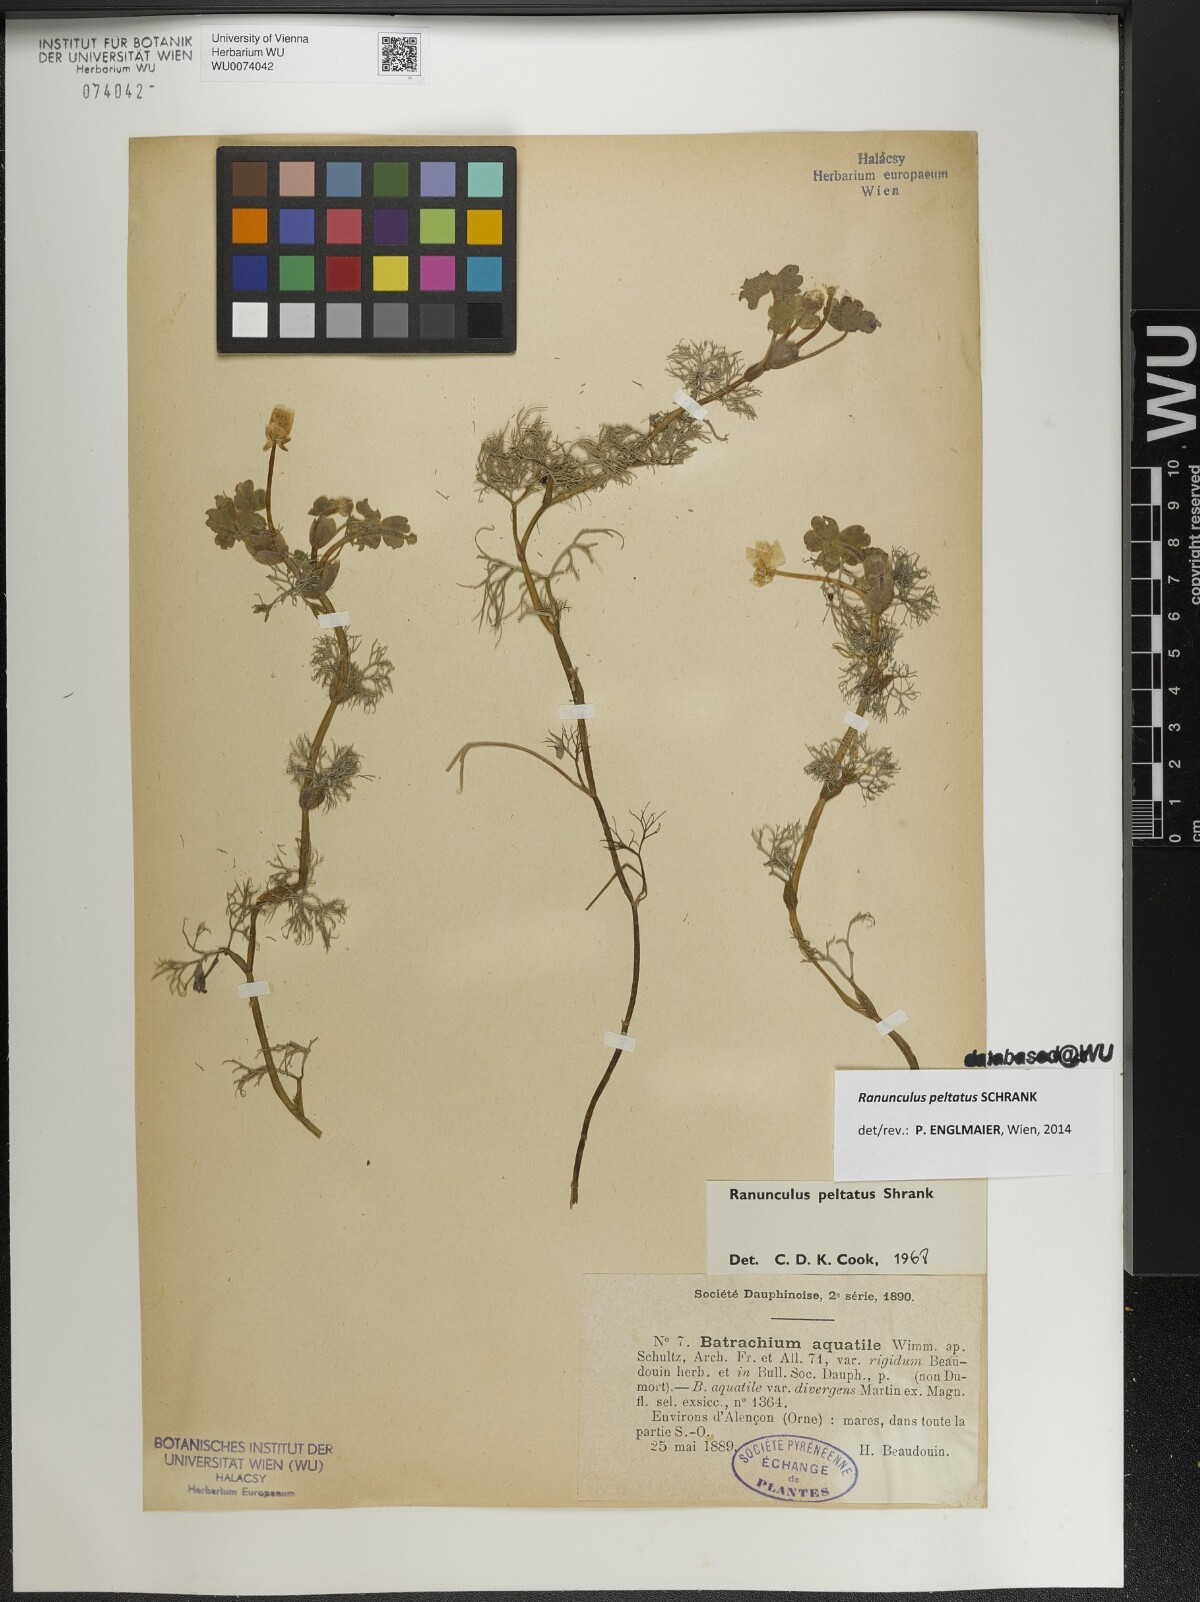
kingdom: Plantae
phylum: Tracheophyta
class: Magnoliopsida
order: Ranunculales
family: Ranunculaceae
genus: Ranunculus
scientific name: Ranunculus peltatus
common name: Pond water-crowfoot
